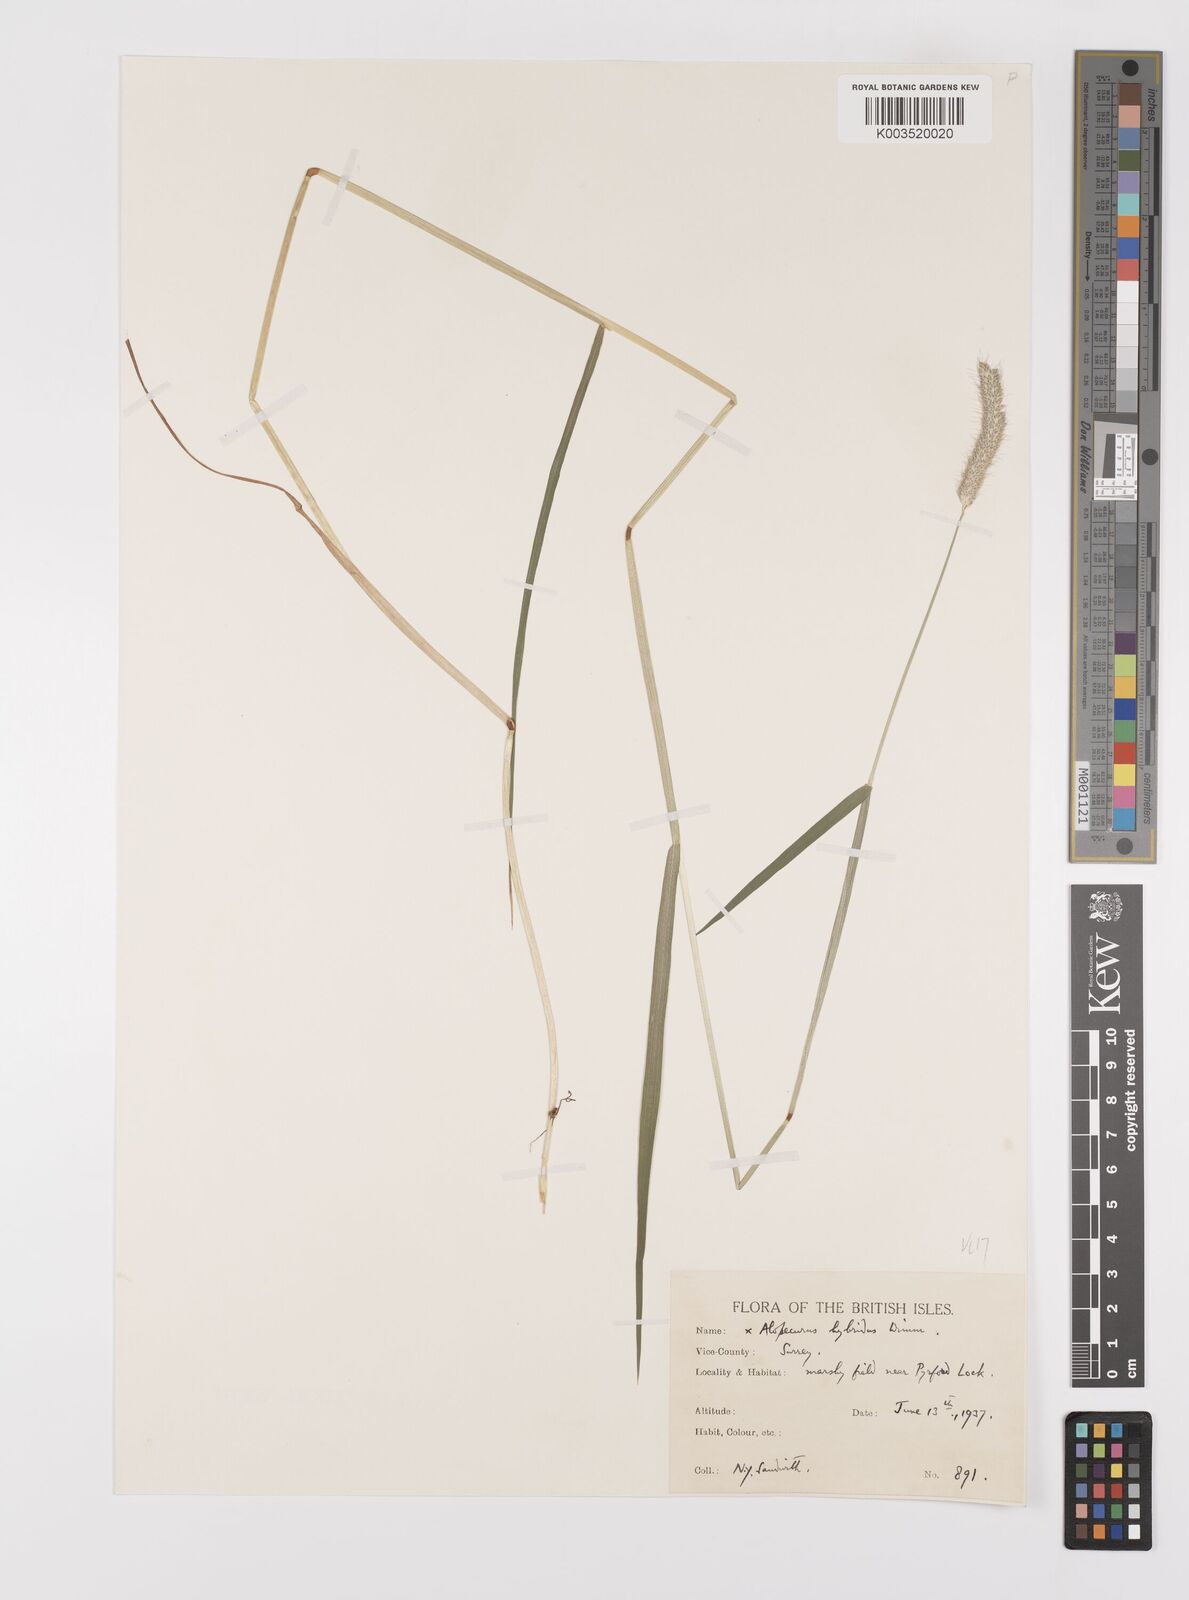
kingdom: Plantae
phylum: Tracheophyta
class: Liliopsida
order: Poales
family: Poaceae
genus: Alopecurus
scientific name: Alopecurus brachystylus
